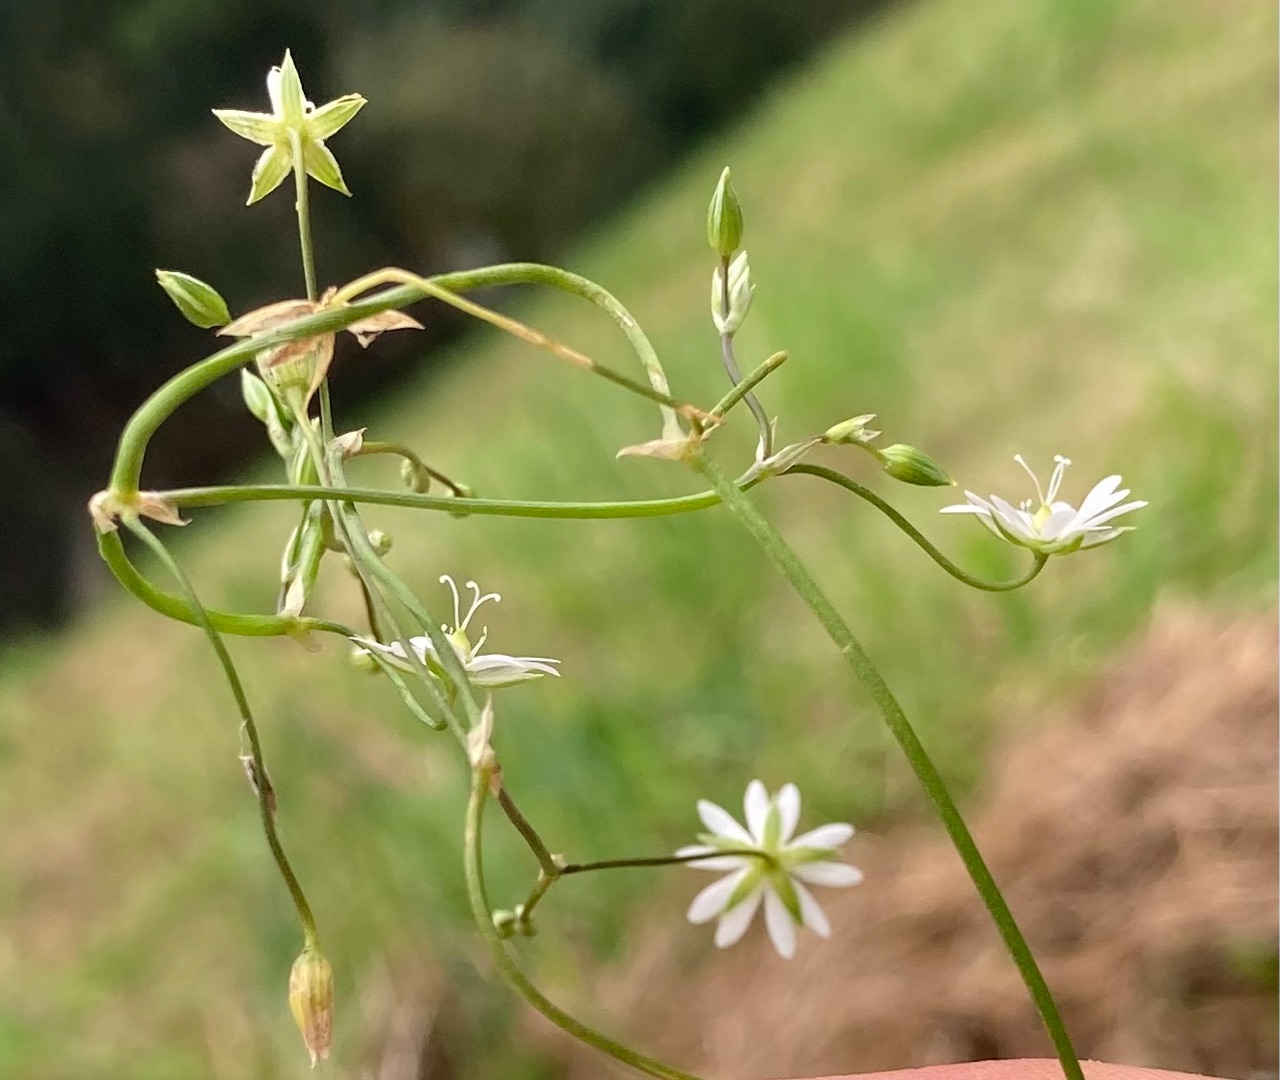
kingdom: Plantae
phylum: Tracheophyta
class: Magnoliopsida
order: Caryophyllales
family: Caryophyllaceae
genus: Stellaria
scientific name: Stellaria graminea
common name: Græsbladet fladstjerne
